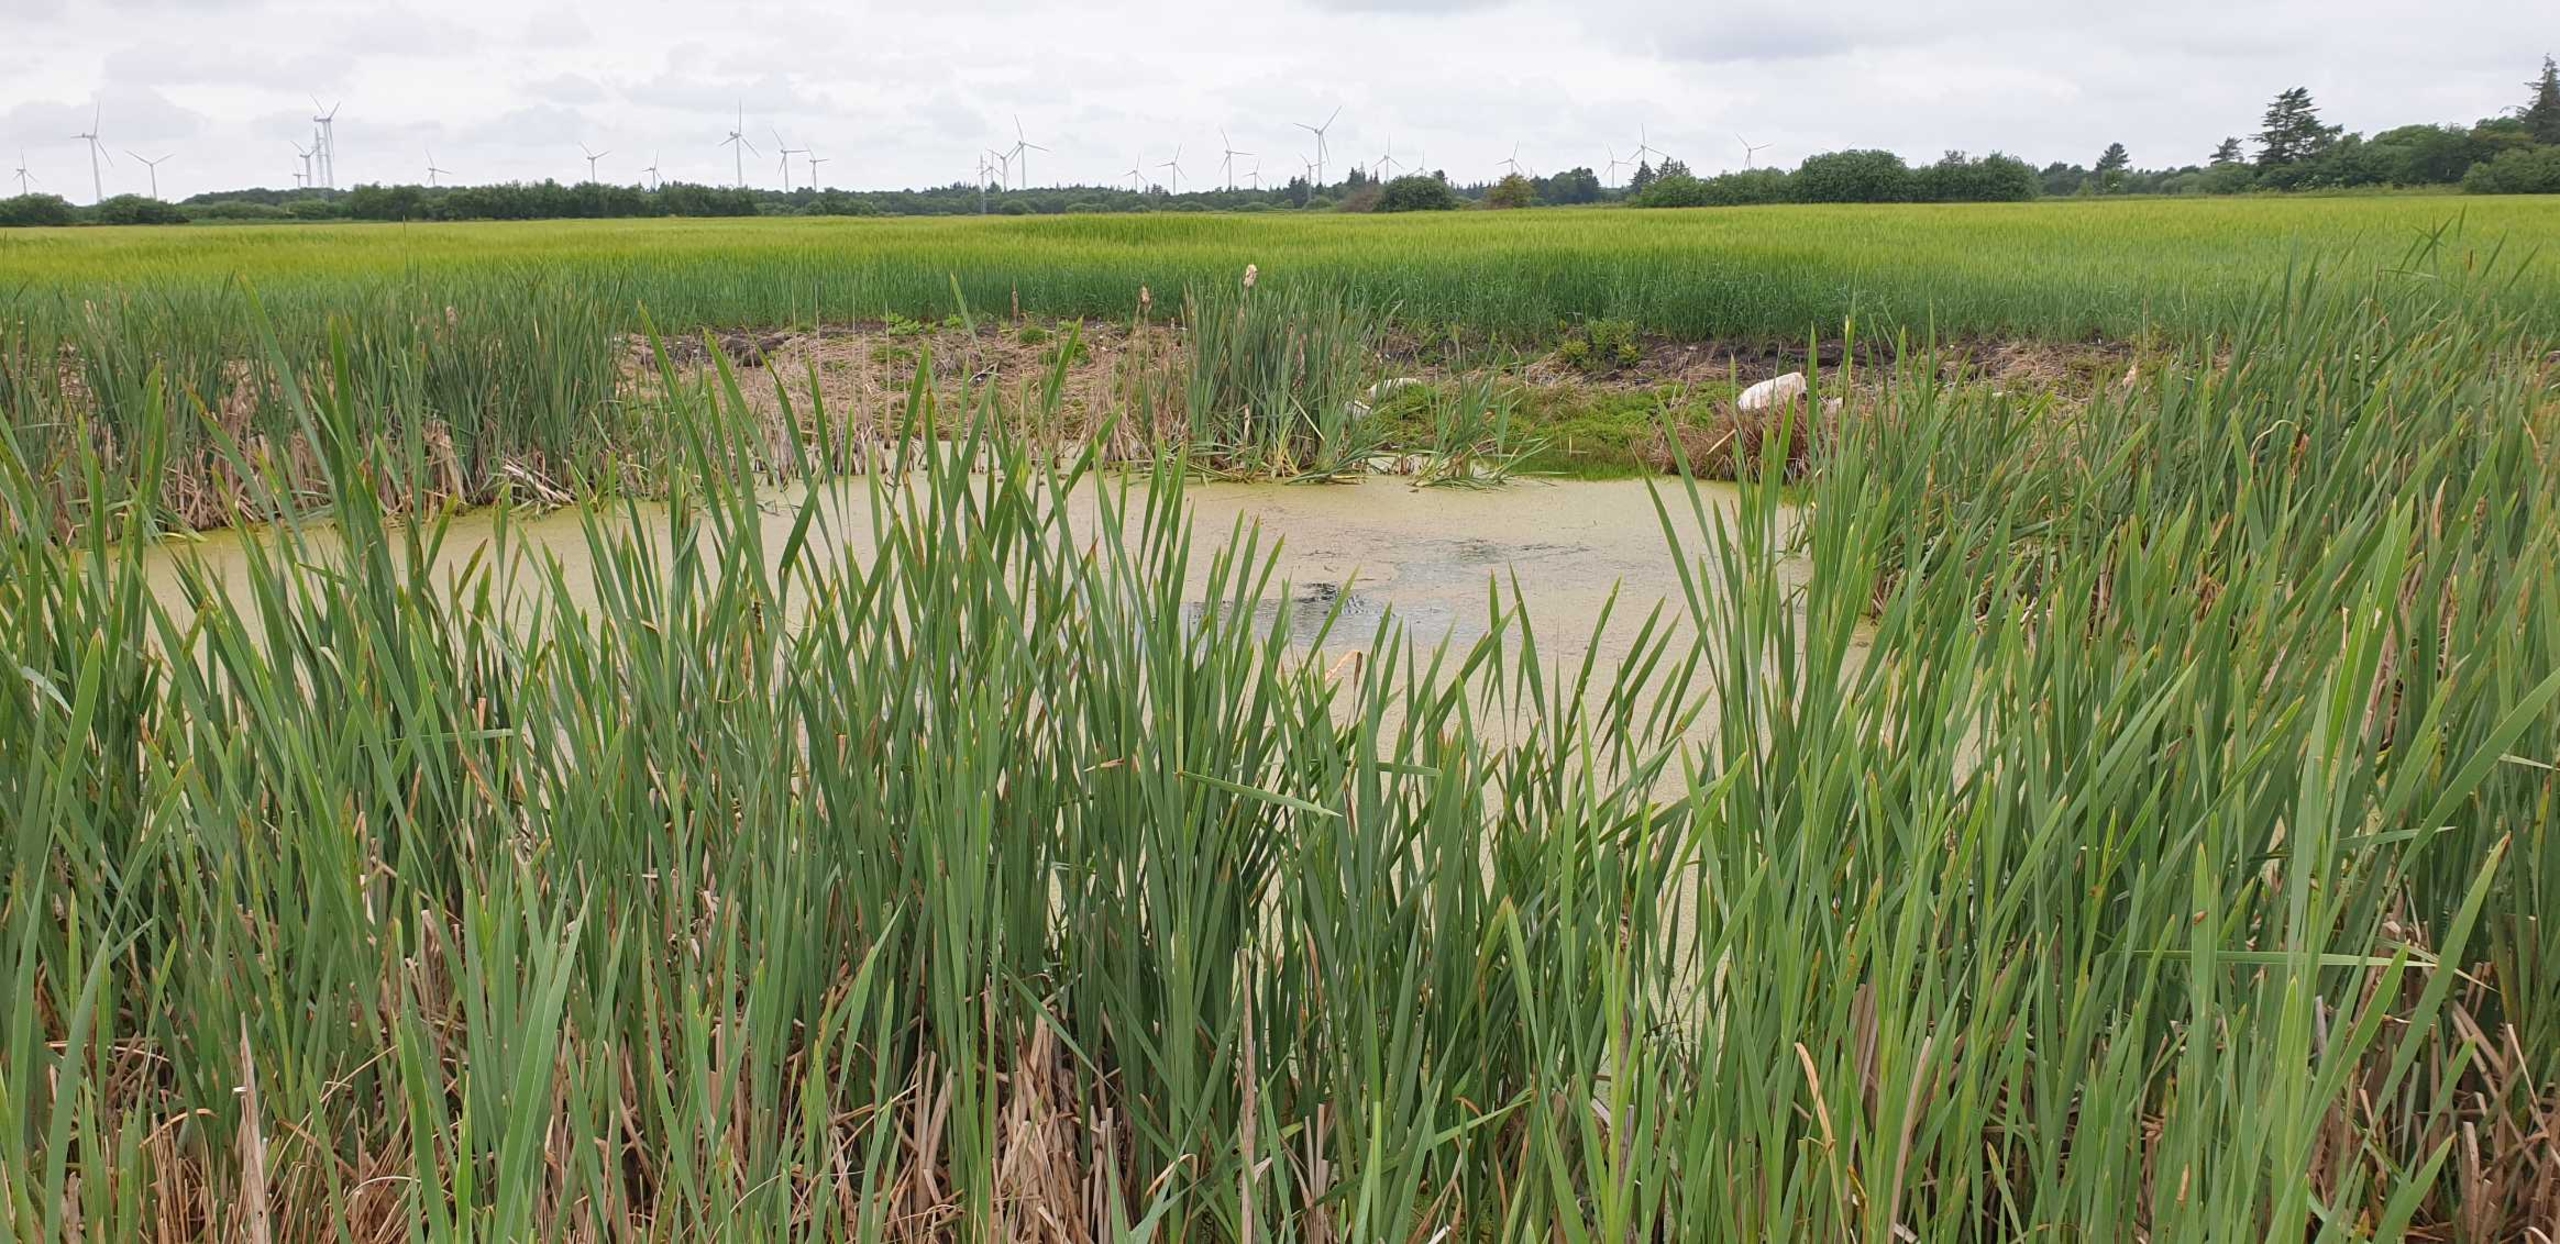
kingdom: Plantae
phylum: Tracheophyta
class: Liliopsida
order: Poales
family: Typhaceae
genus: Typha
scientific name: Typha latifolia
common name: Bredbladet dunhammer
